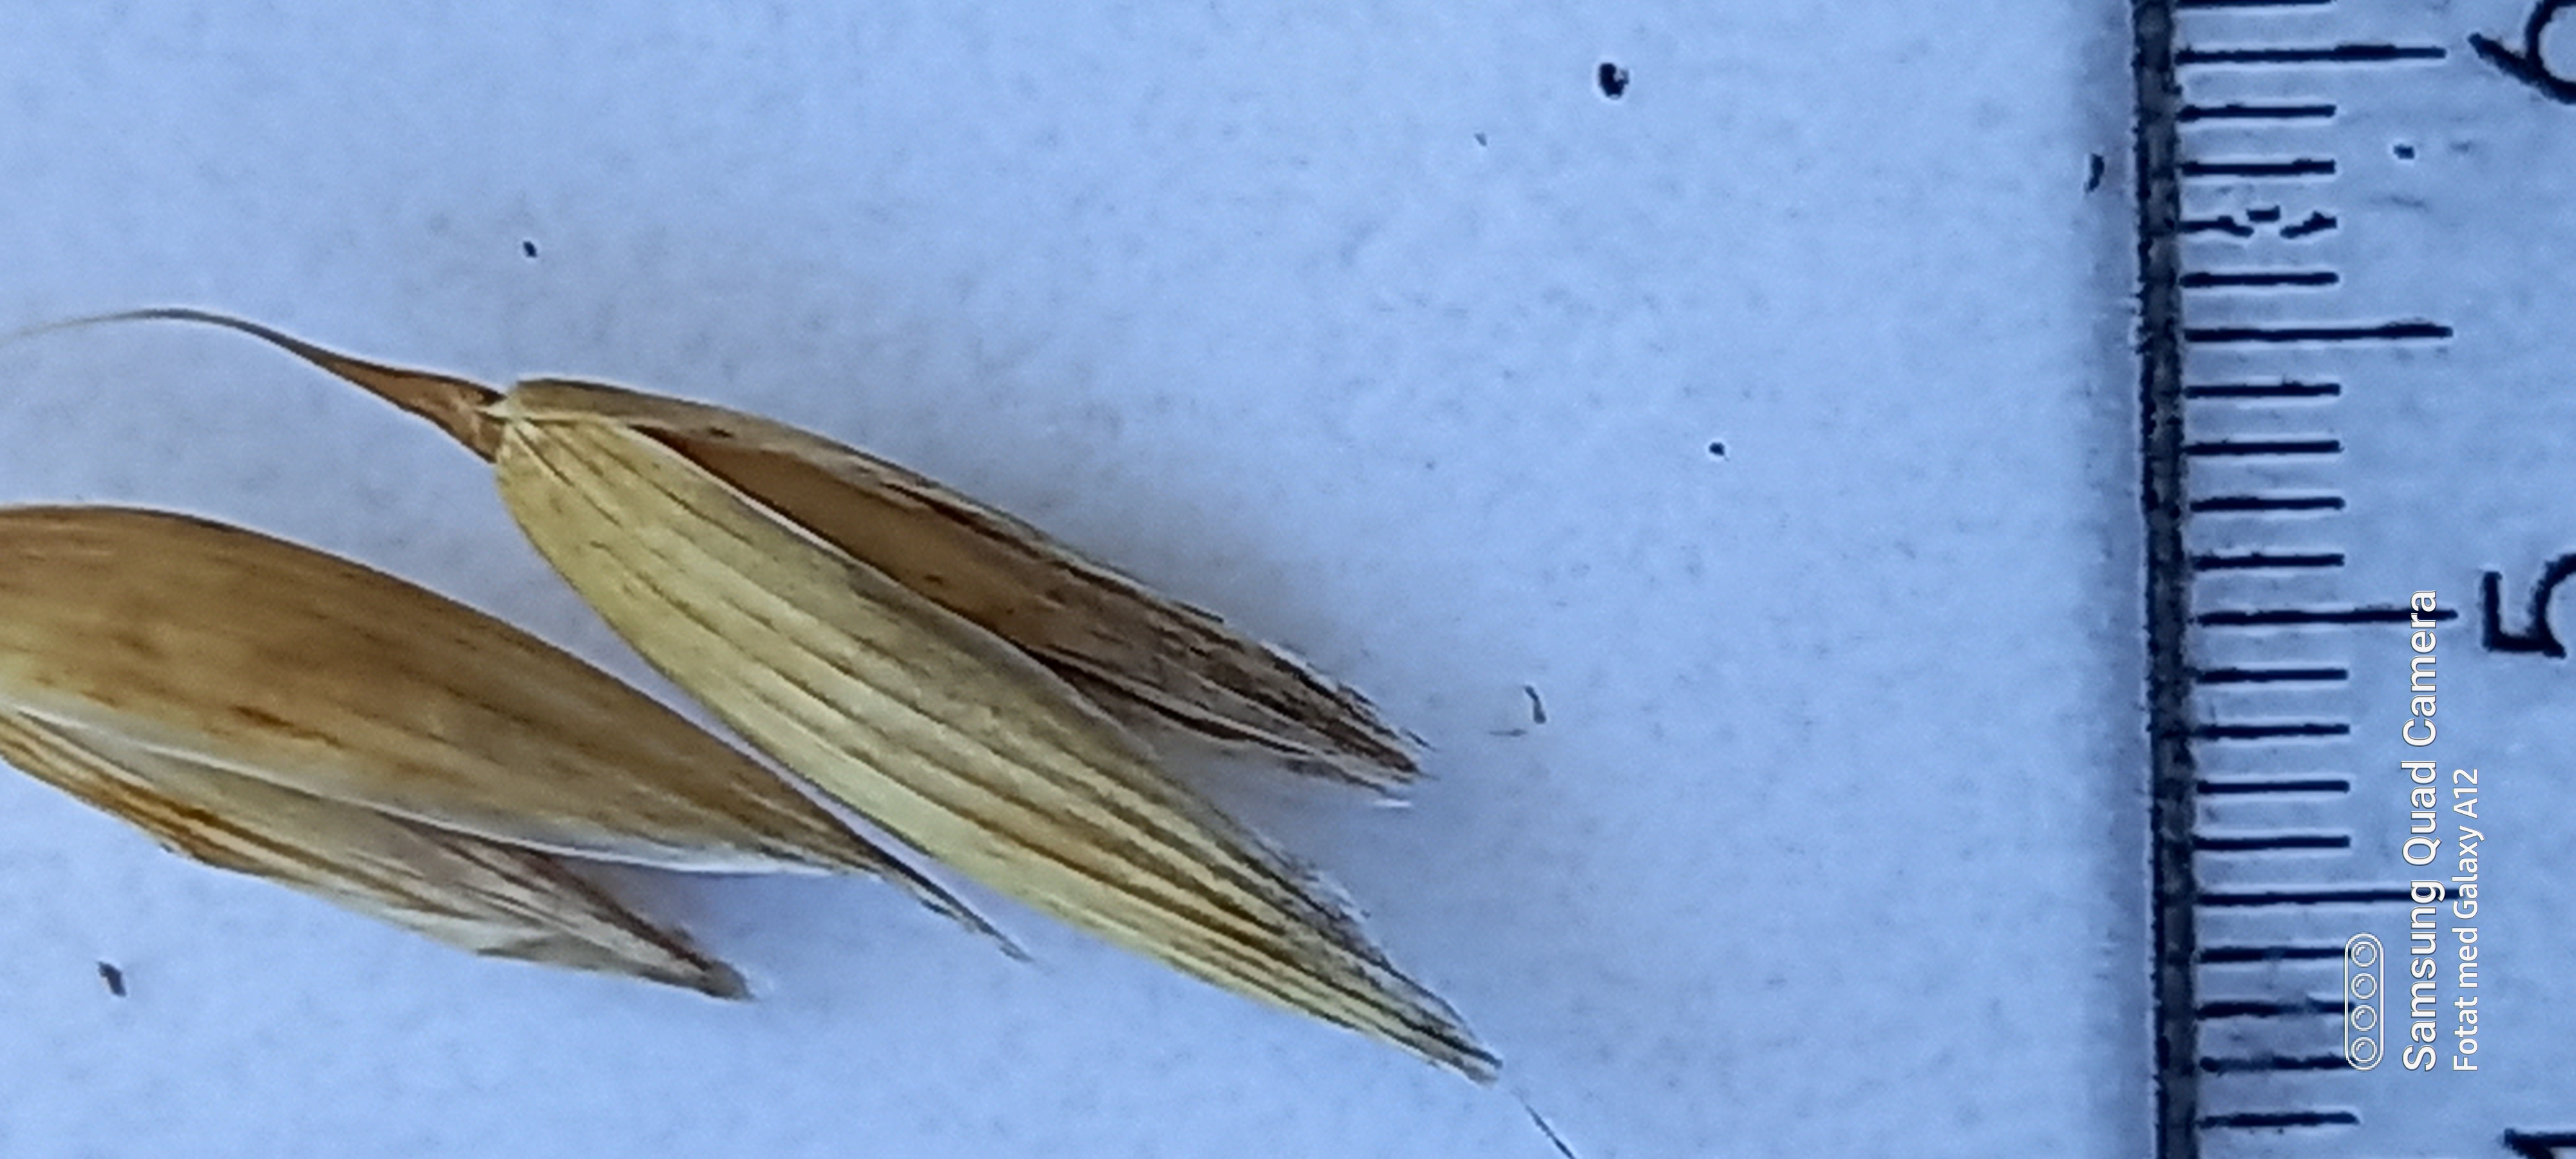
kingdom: Plantae
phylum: Tracheophyta
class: Liliopsida
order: Poales
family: Poaceae
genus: Avena
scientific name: Avena sativa
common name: Oat
